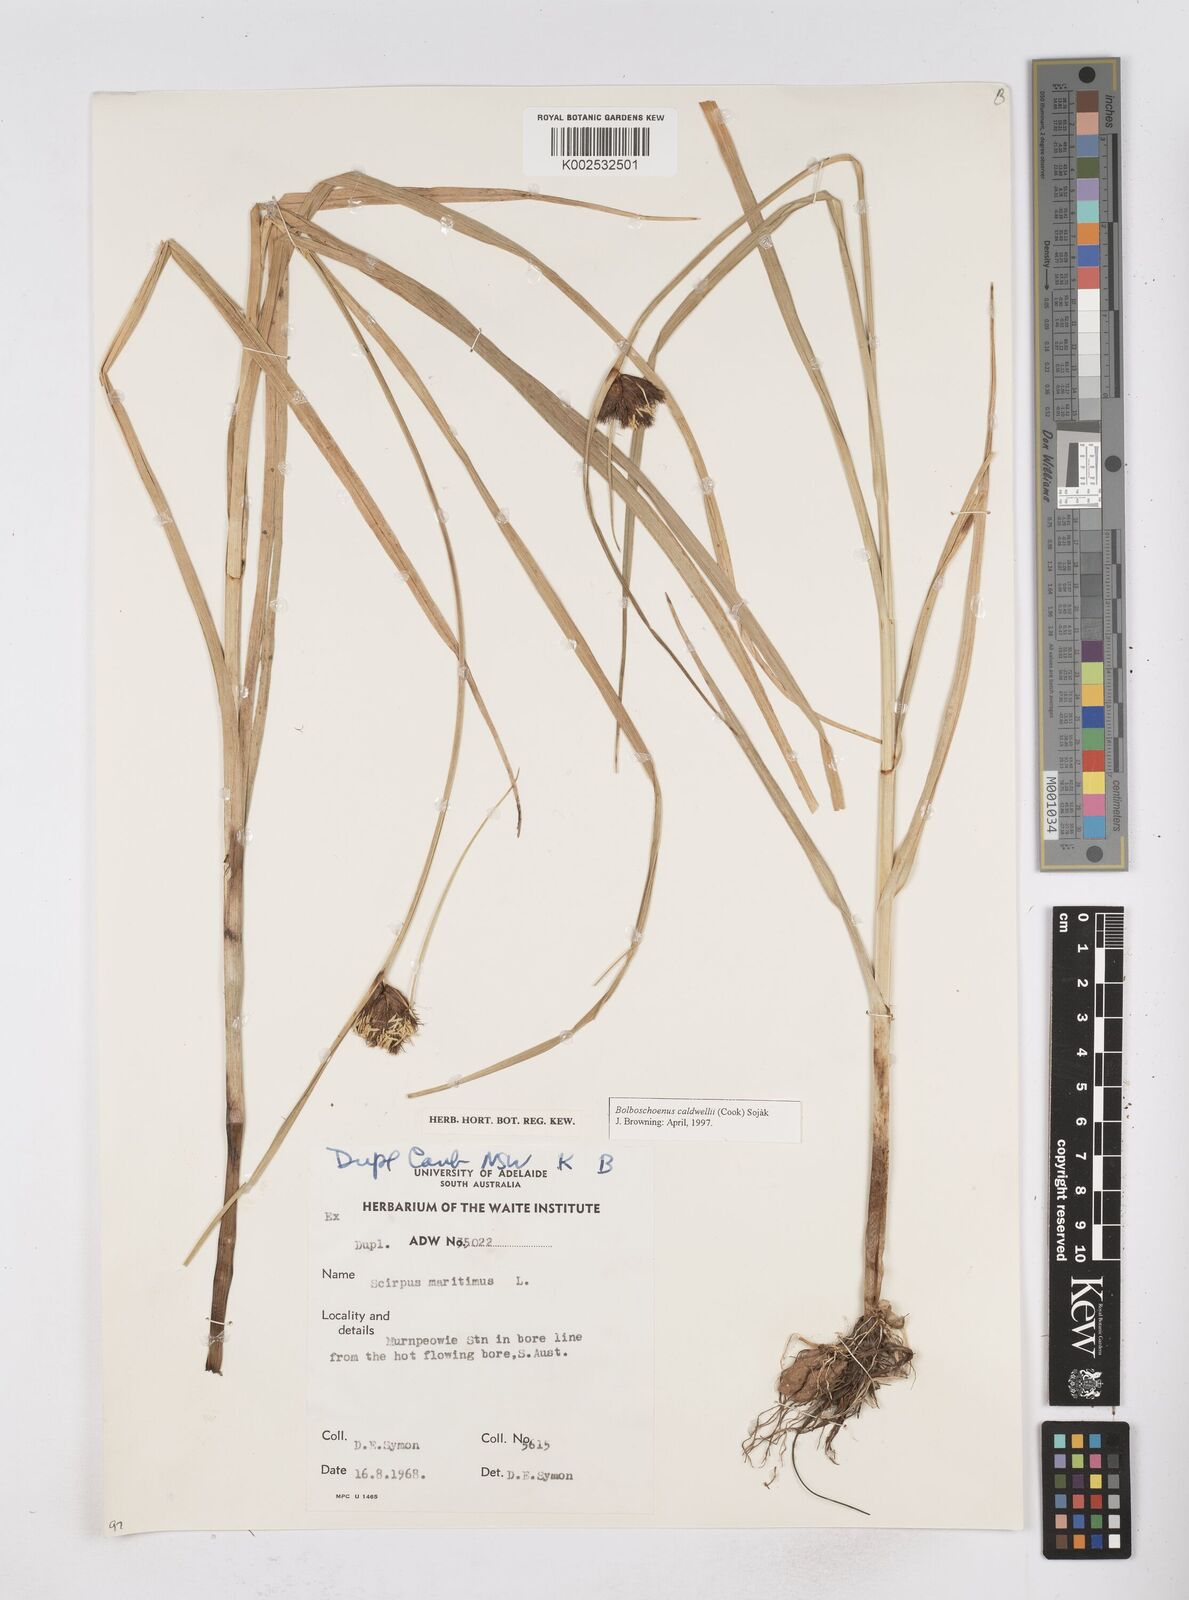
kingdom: Plantae
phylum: Tracheophyta
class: Liliopsida
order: Poales
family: Cyperaceae
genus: Bolboschoenus
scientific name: Bolboschoenus maritimus
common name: Sea club-rush
